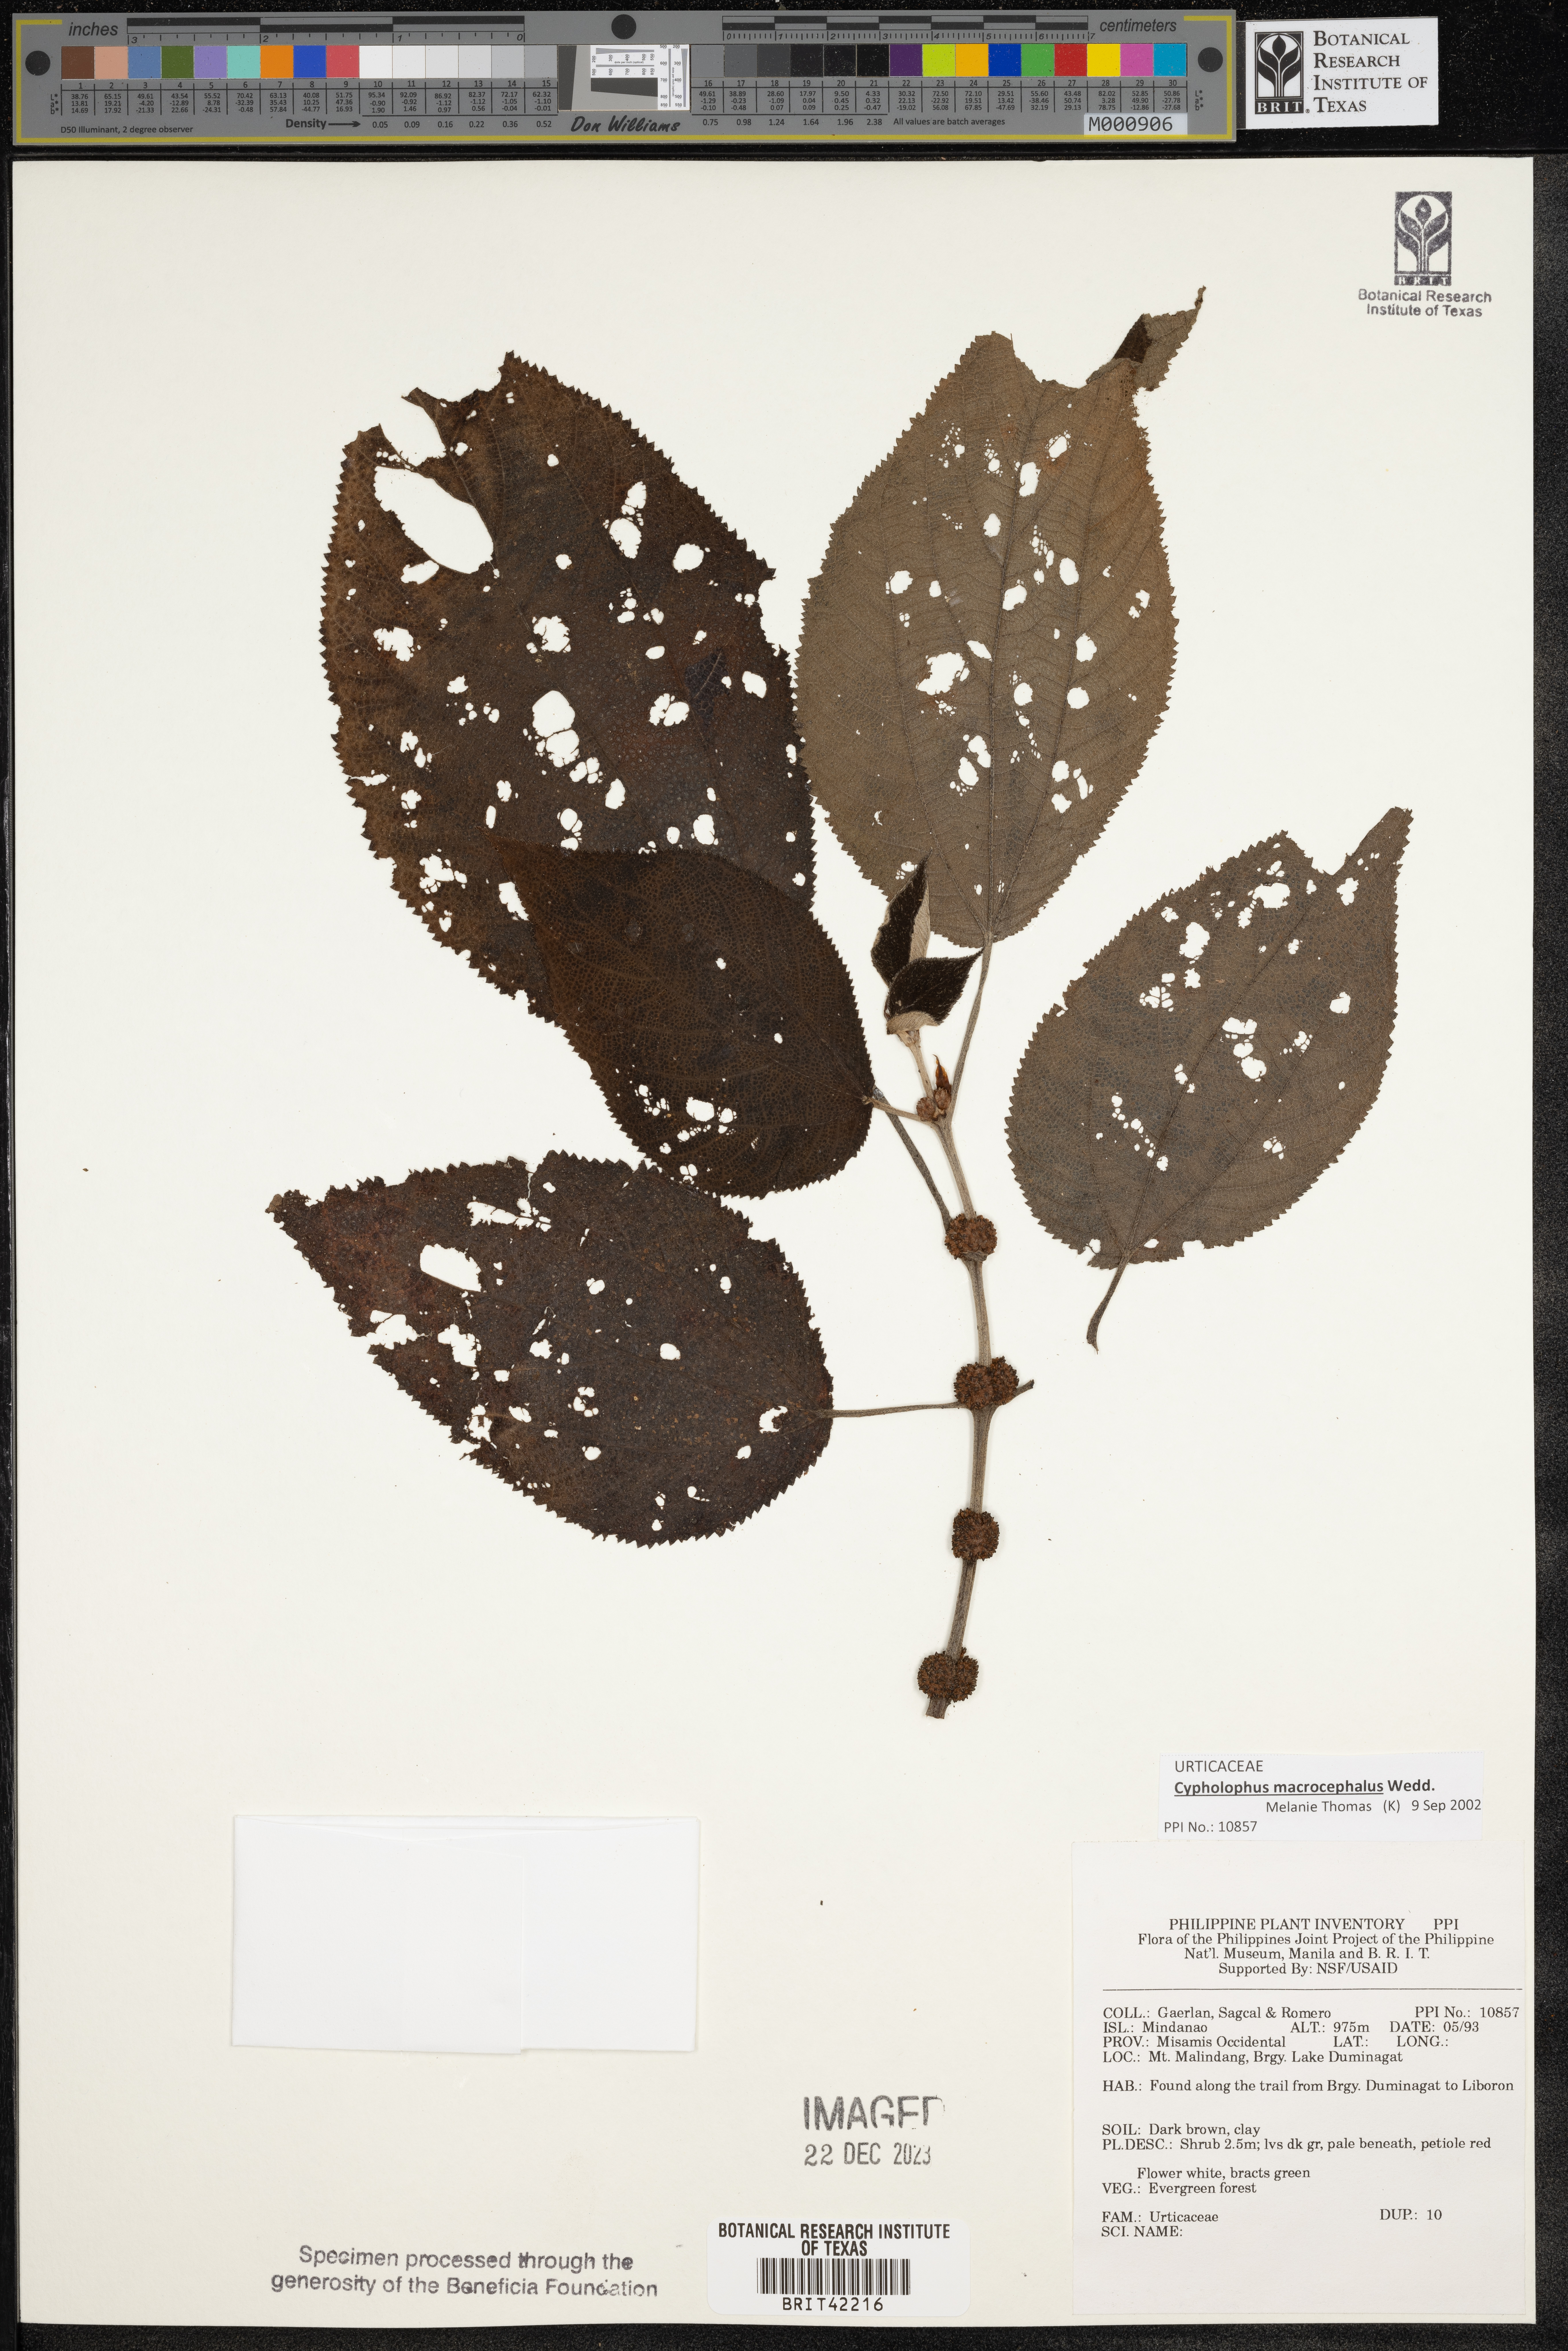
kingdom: Plantae
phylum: Tracheophyta
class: Magnoliopsida
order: Rosales
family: Urticaceae
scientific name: Urticaceae
